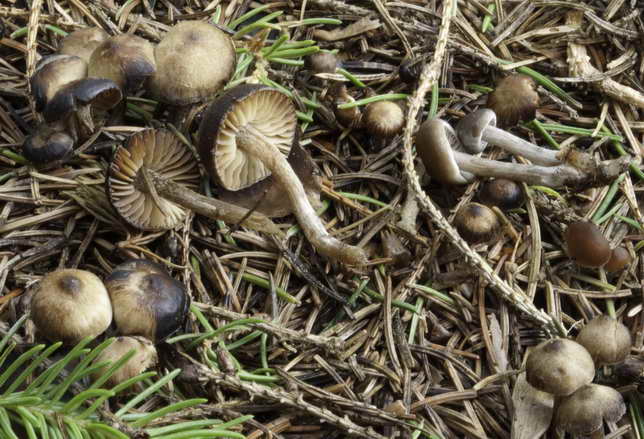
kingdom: Fungi
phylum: Basidiomycota
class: Agaricomycetes
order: Agaricales
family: Lyophyllaceae
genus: Sagaranella
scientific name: Sagaranella tylicolor
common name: kvælstof-gråblad
